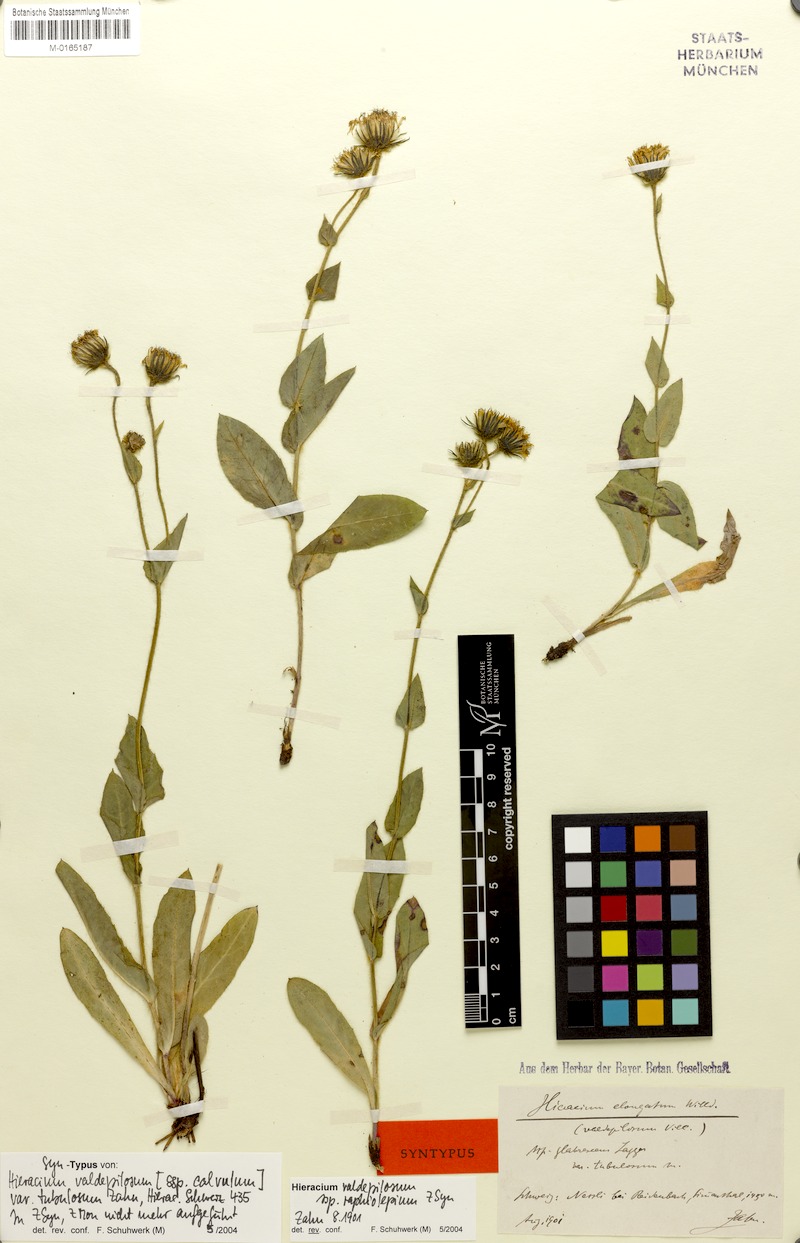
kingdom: Plantae
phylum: Tracheophyta
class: Magnoliopsida
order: Asterales
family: Asteraceae
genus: Hieracium
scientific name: Hieracium valdepilosum
